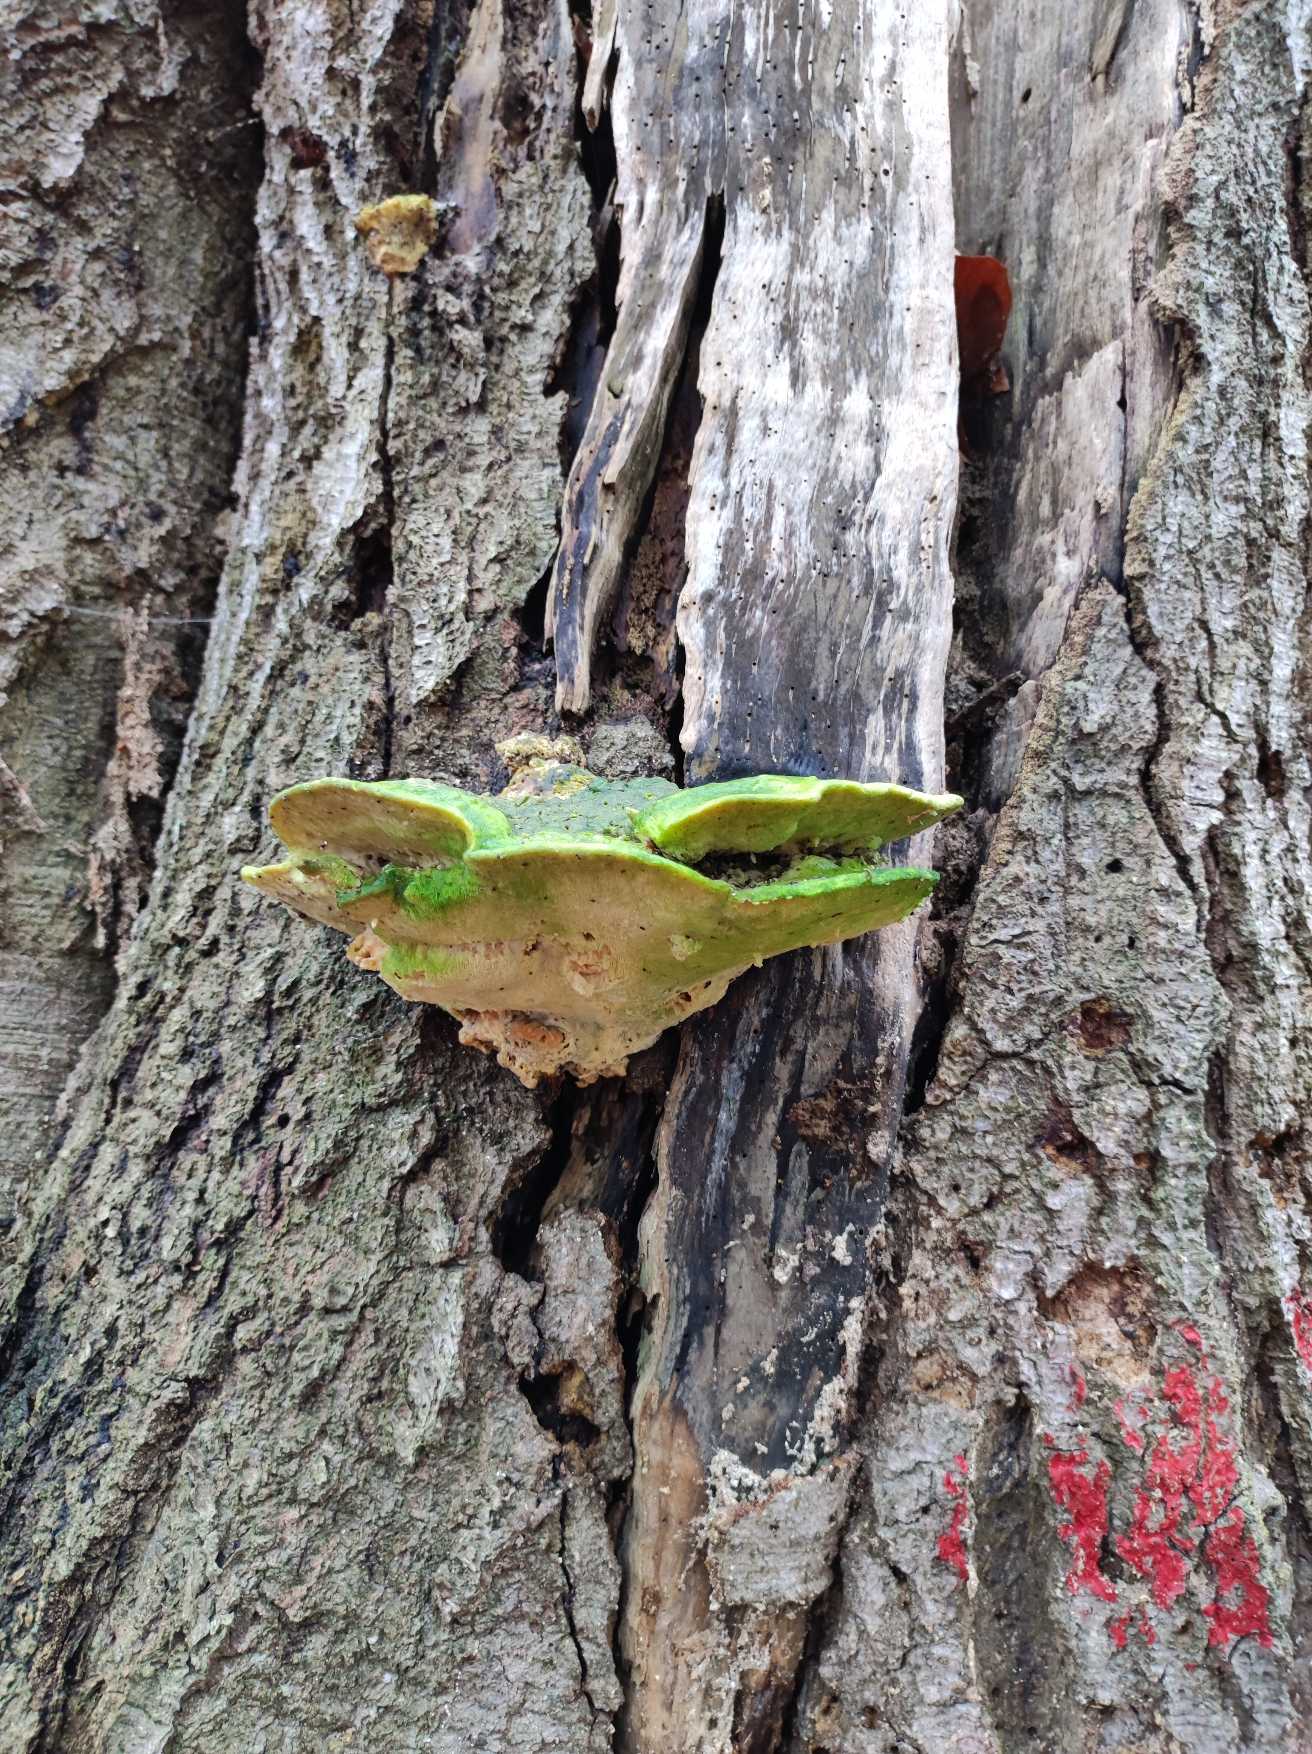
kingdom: Fungi
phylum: Basidiomycota
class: Agaricomycetes
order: Polyporales
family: Polyporaceae
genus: Trametes
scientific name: Trametes gibbosa
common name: Puklet læderporesvamp
